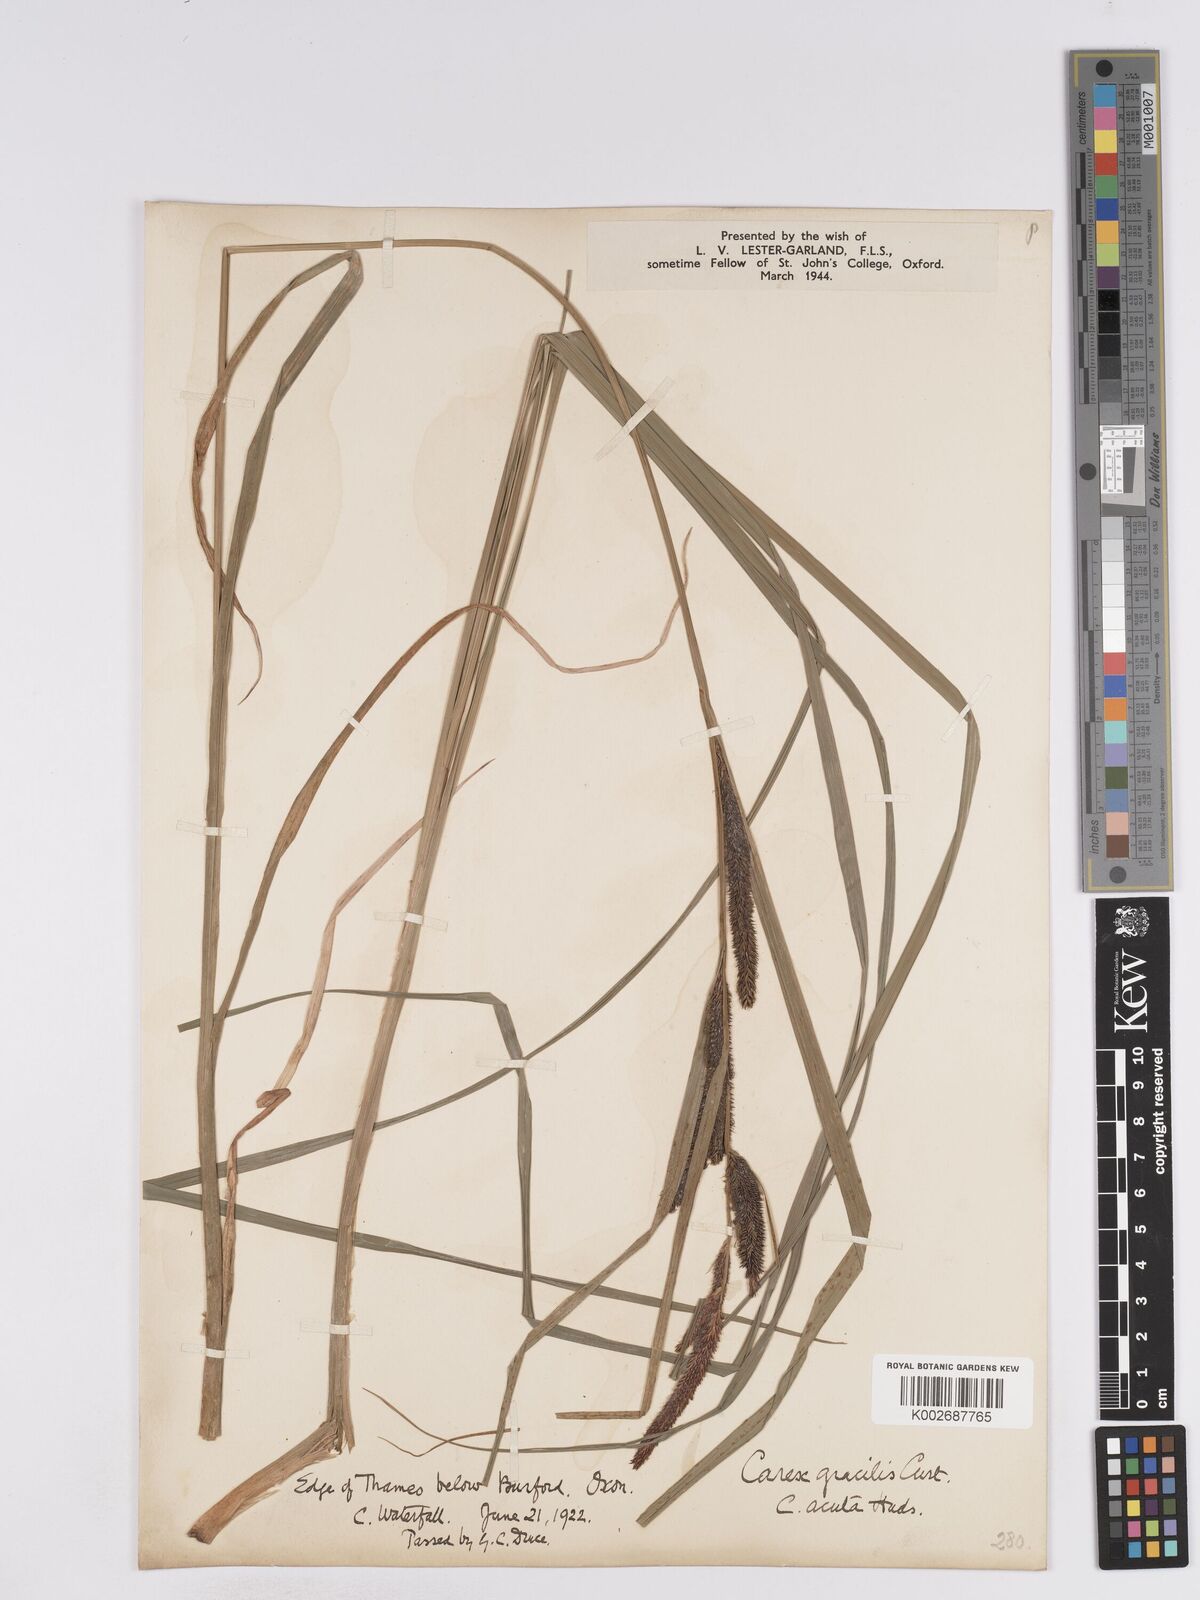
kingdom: Plantae
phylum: Tracheophyta
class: Liliopsida
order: Poales
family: Cyperaceae
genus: Carex
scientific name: Carex acuta
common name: Slender tufted-sedge
